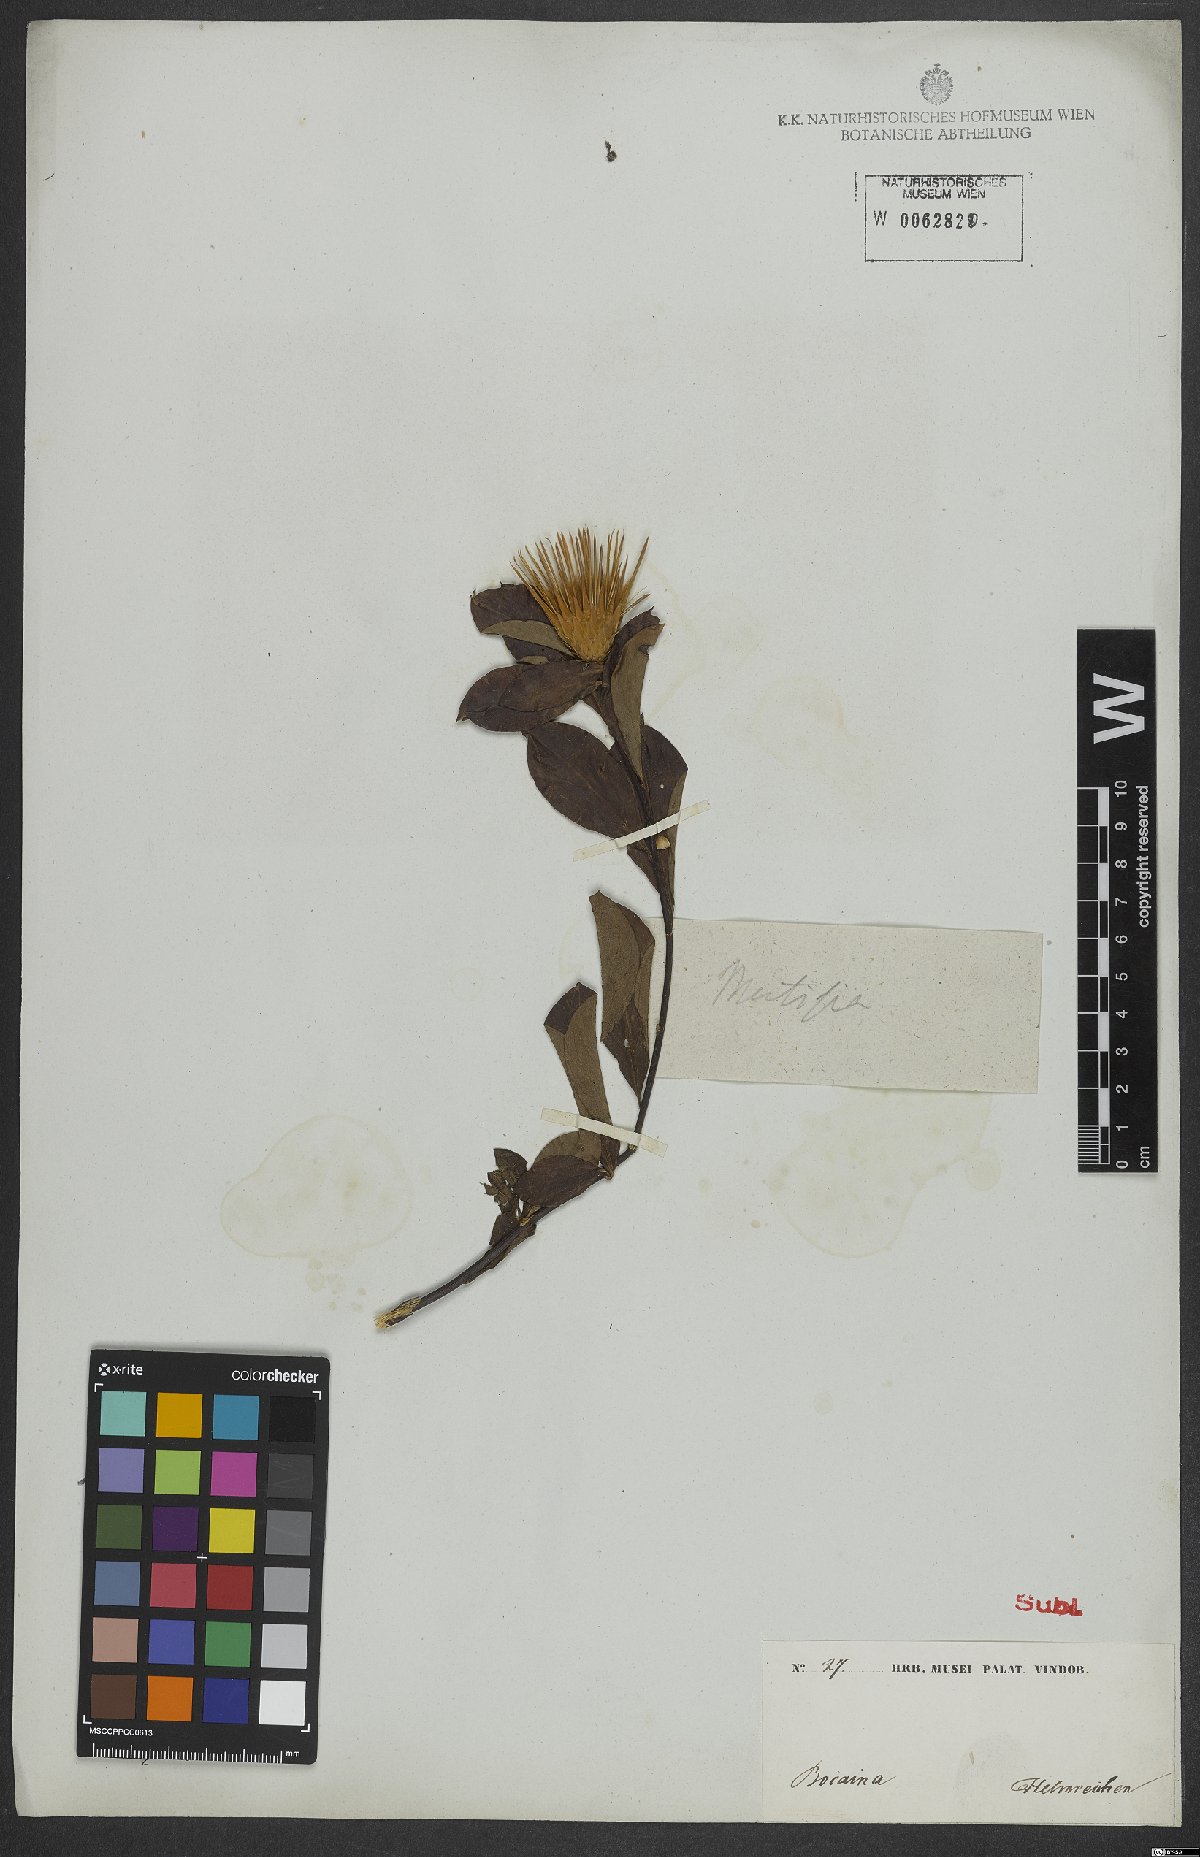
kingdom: Plantae
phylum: Tracheophyta
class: Magnoliopsida
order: Asterales
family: Asteraceae
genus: Barnadesia
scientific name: Barnadesia
